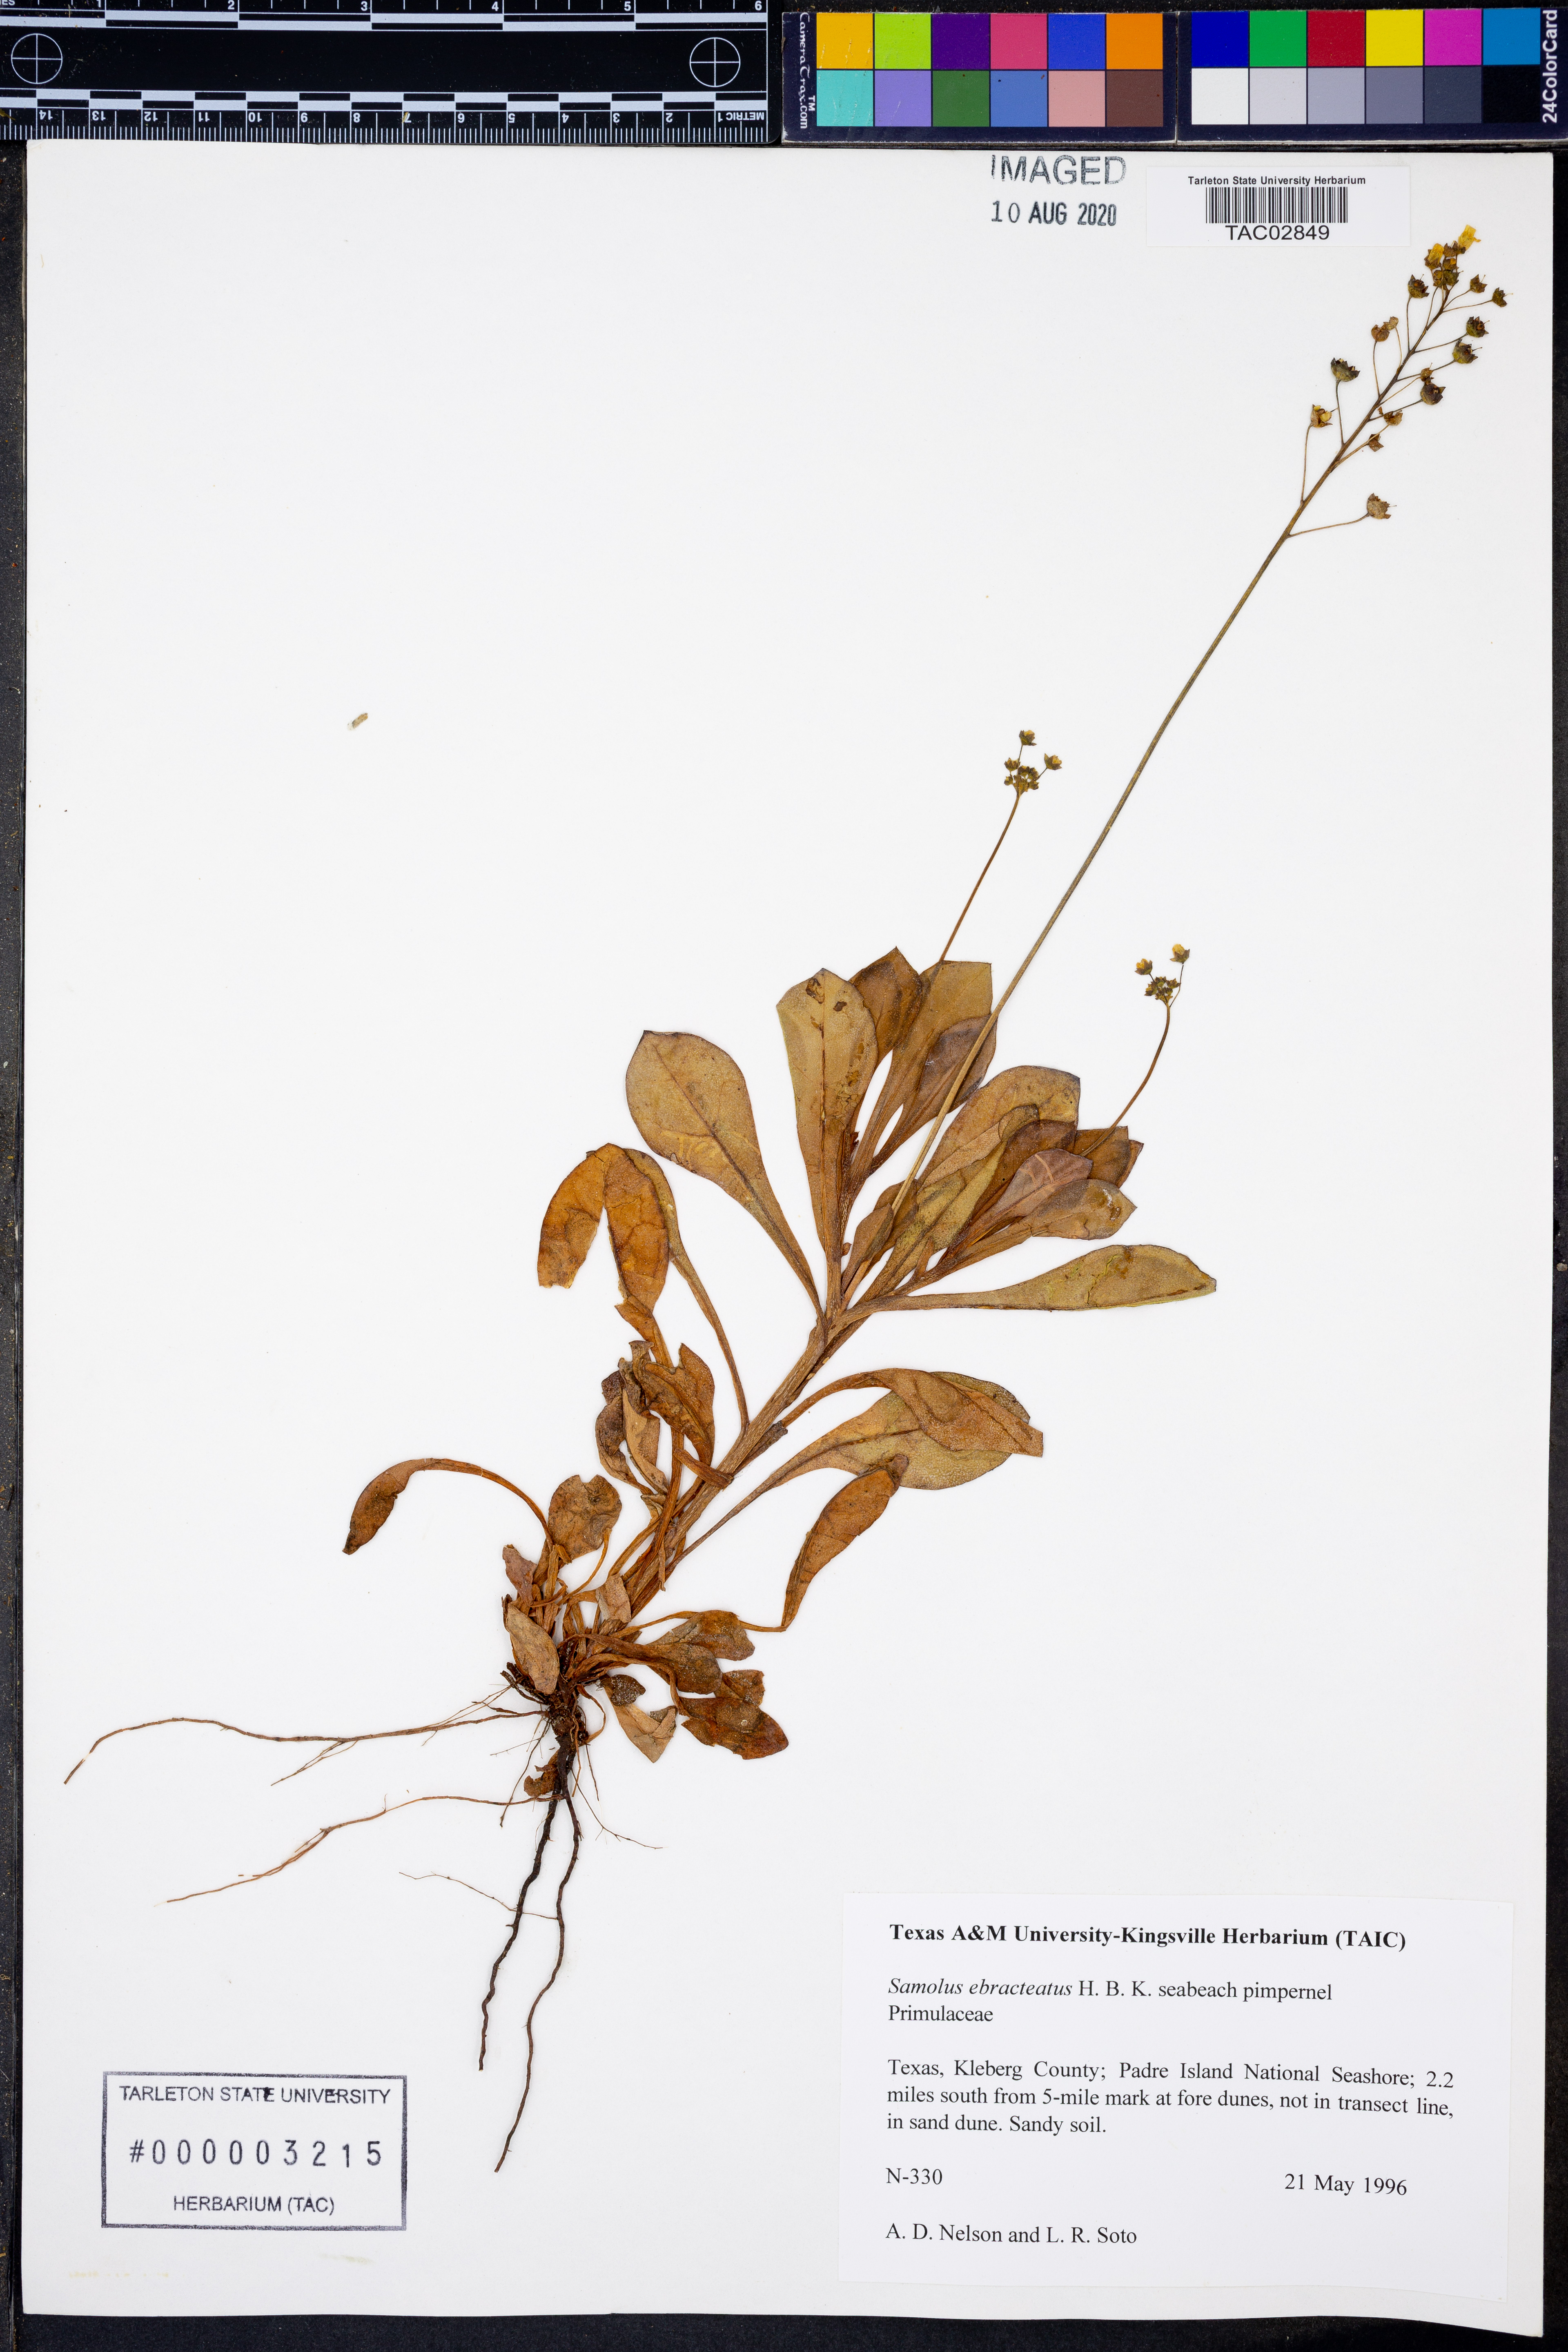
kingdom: Plantae
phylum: Tracheophyta
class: Magnoliopsida
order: Ericales
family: Primulaceae
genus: Samolus
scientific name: Samolus ebracteatus
